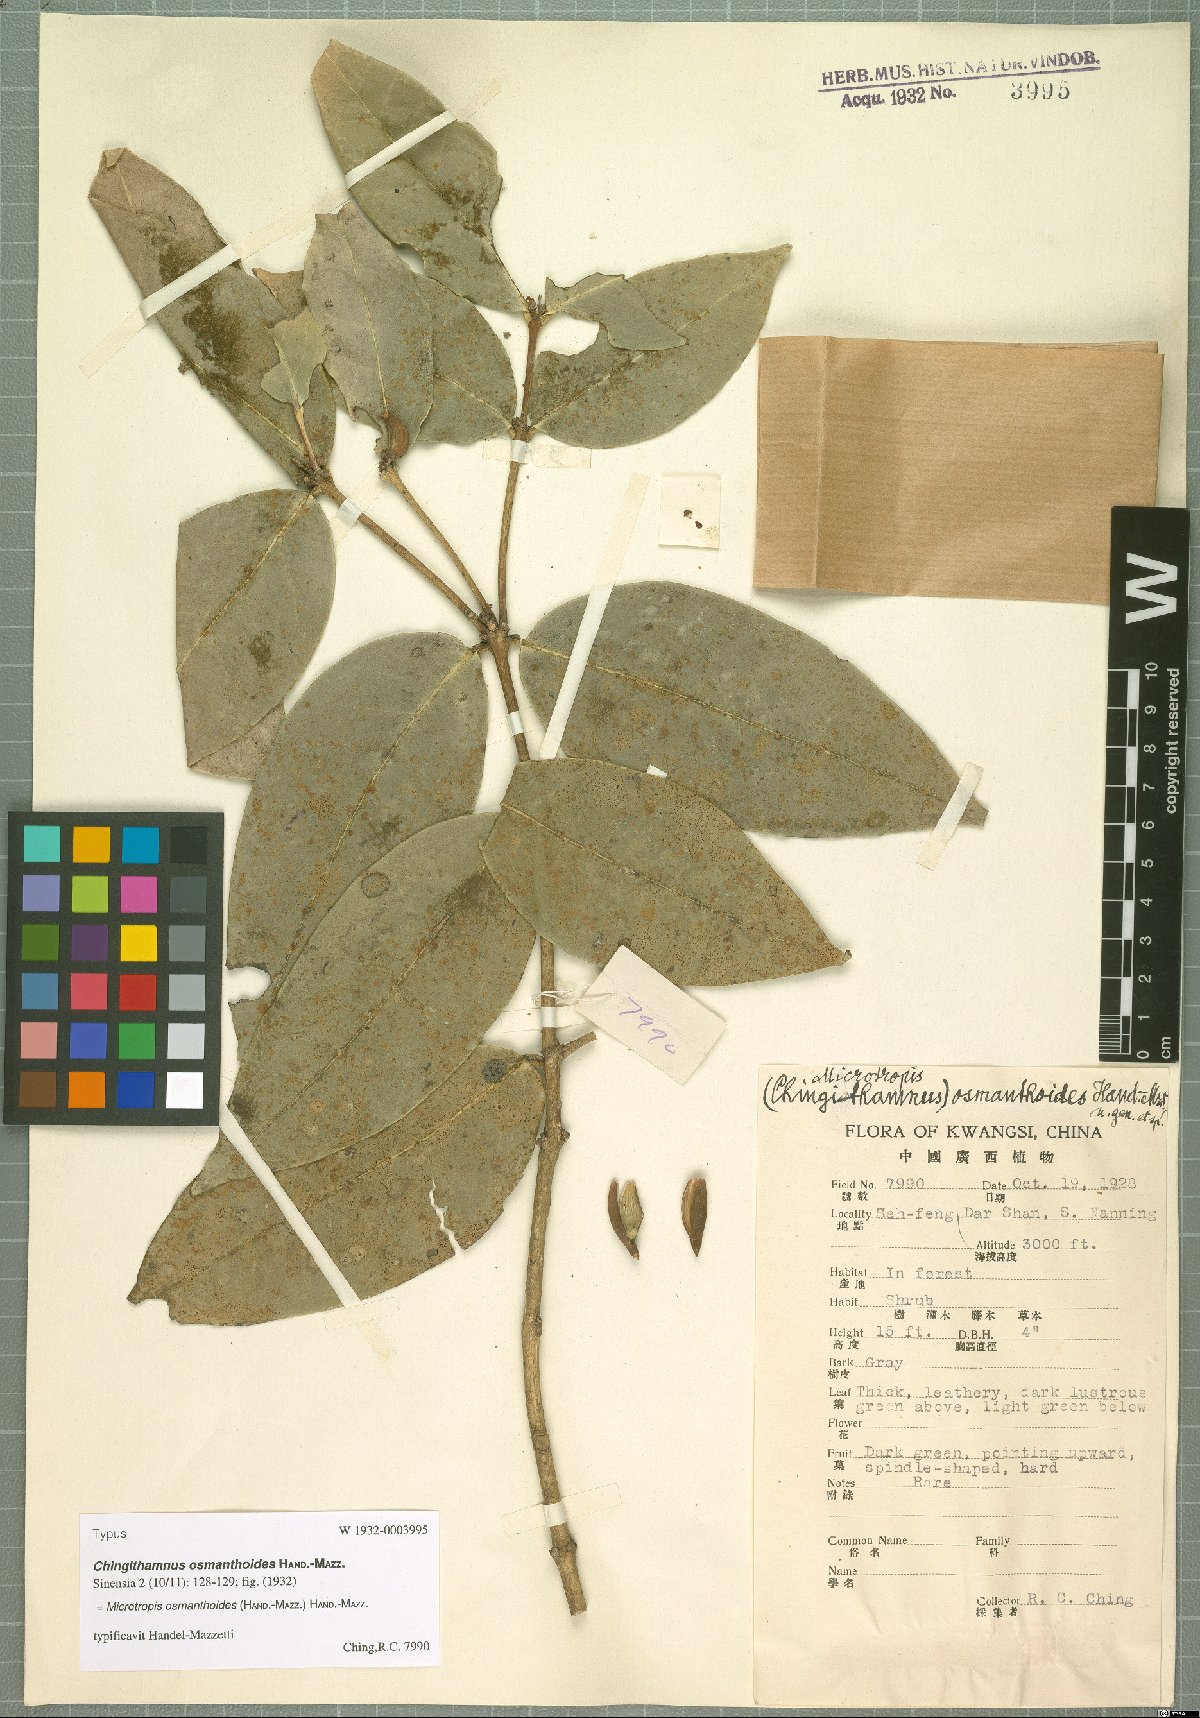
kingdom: Plantae
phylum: Tracheophyta
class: Magnoliopsida
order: Celastrales
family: Celastraceae
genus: Microtropis
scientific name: Microtropis osmanthoides
